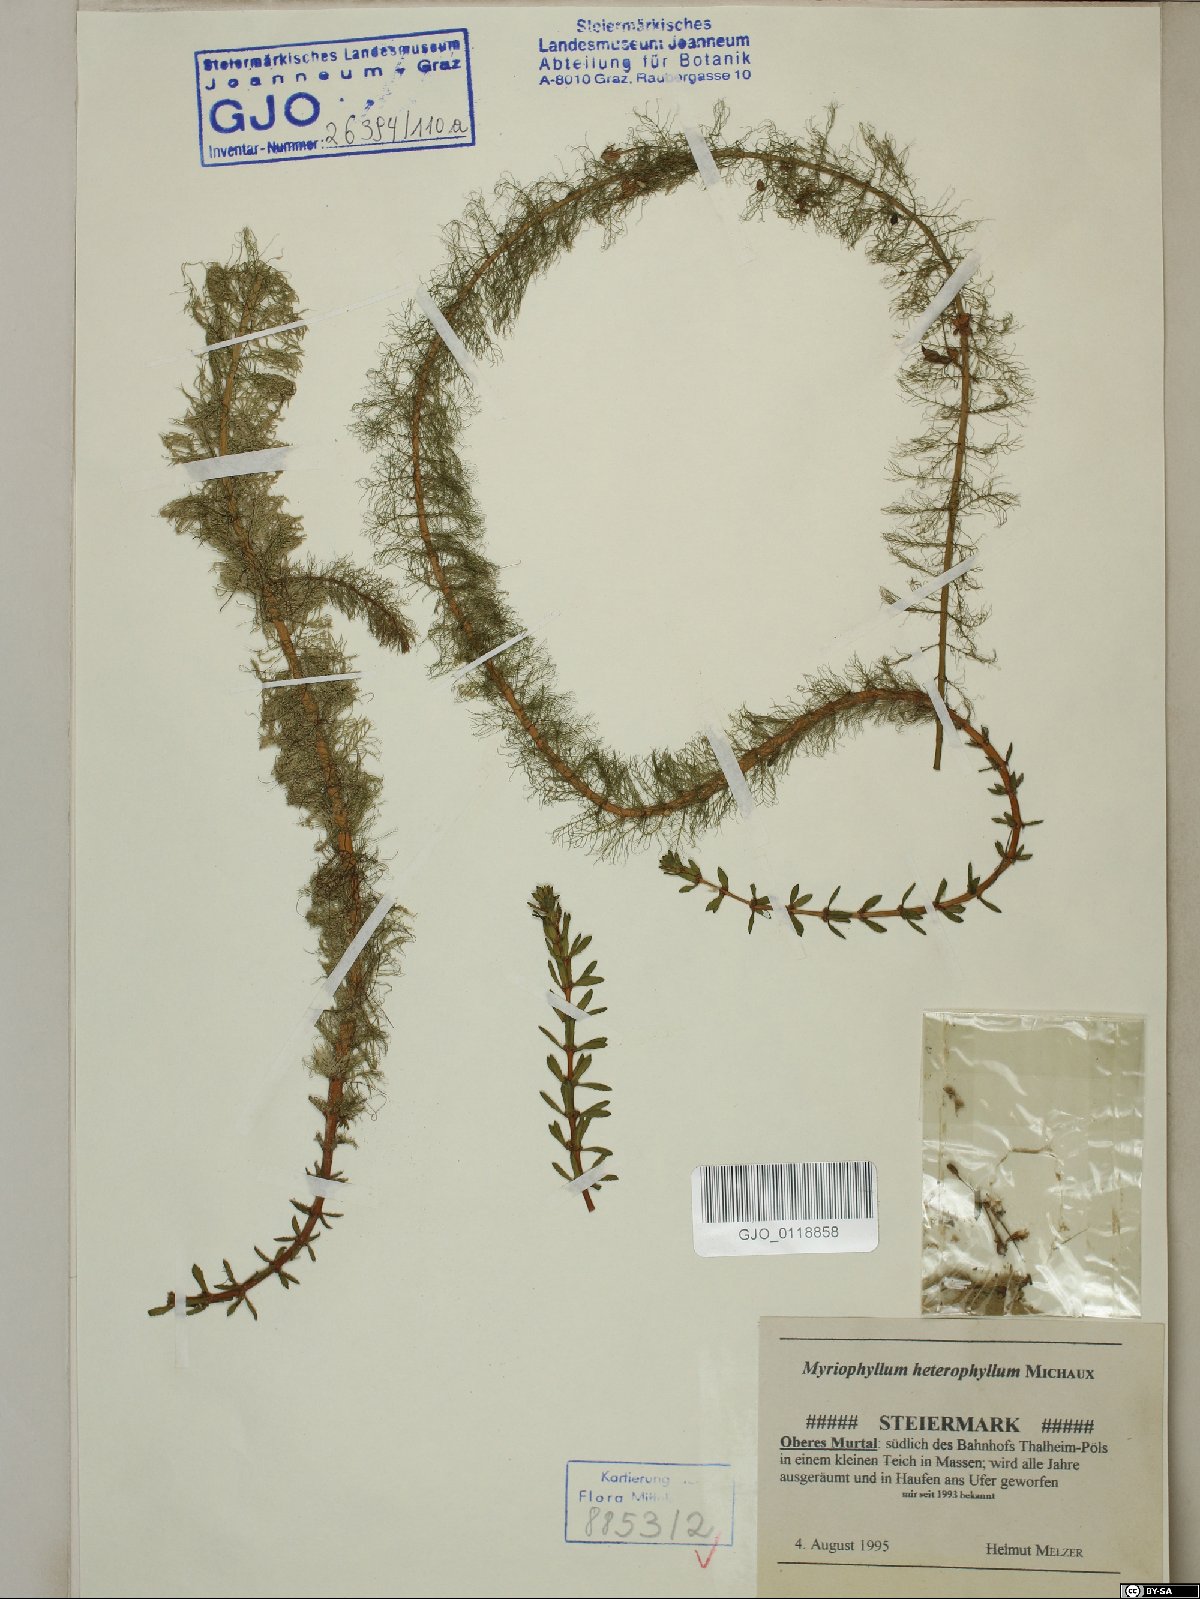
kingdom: Plantae
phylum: Tracheophyta
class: Magnoliopsida
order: Saxifragales
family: Haloragaceae
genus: Myriophyllum
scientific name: Myriophyllum heterophyllum
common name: Variable watermilfoil
